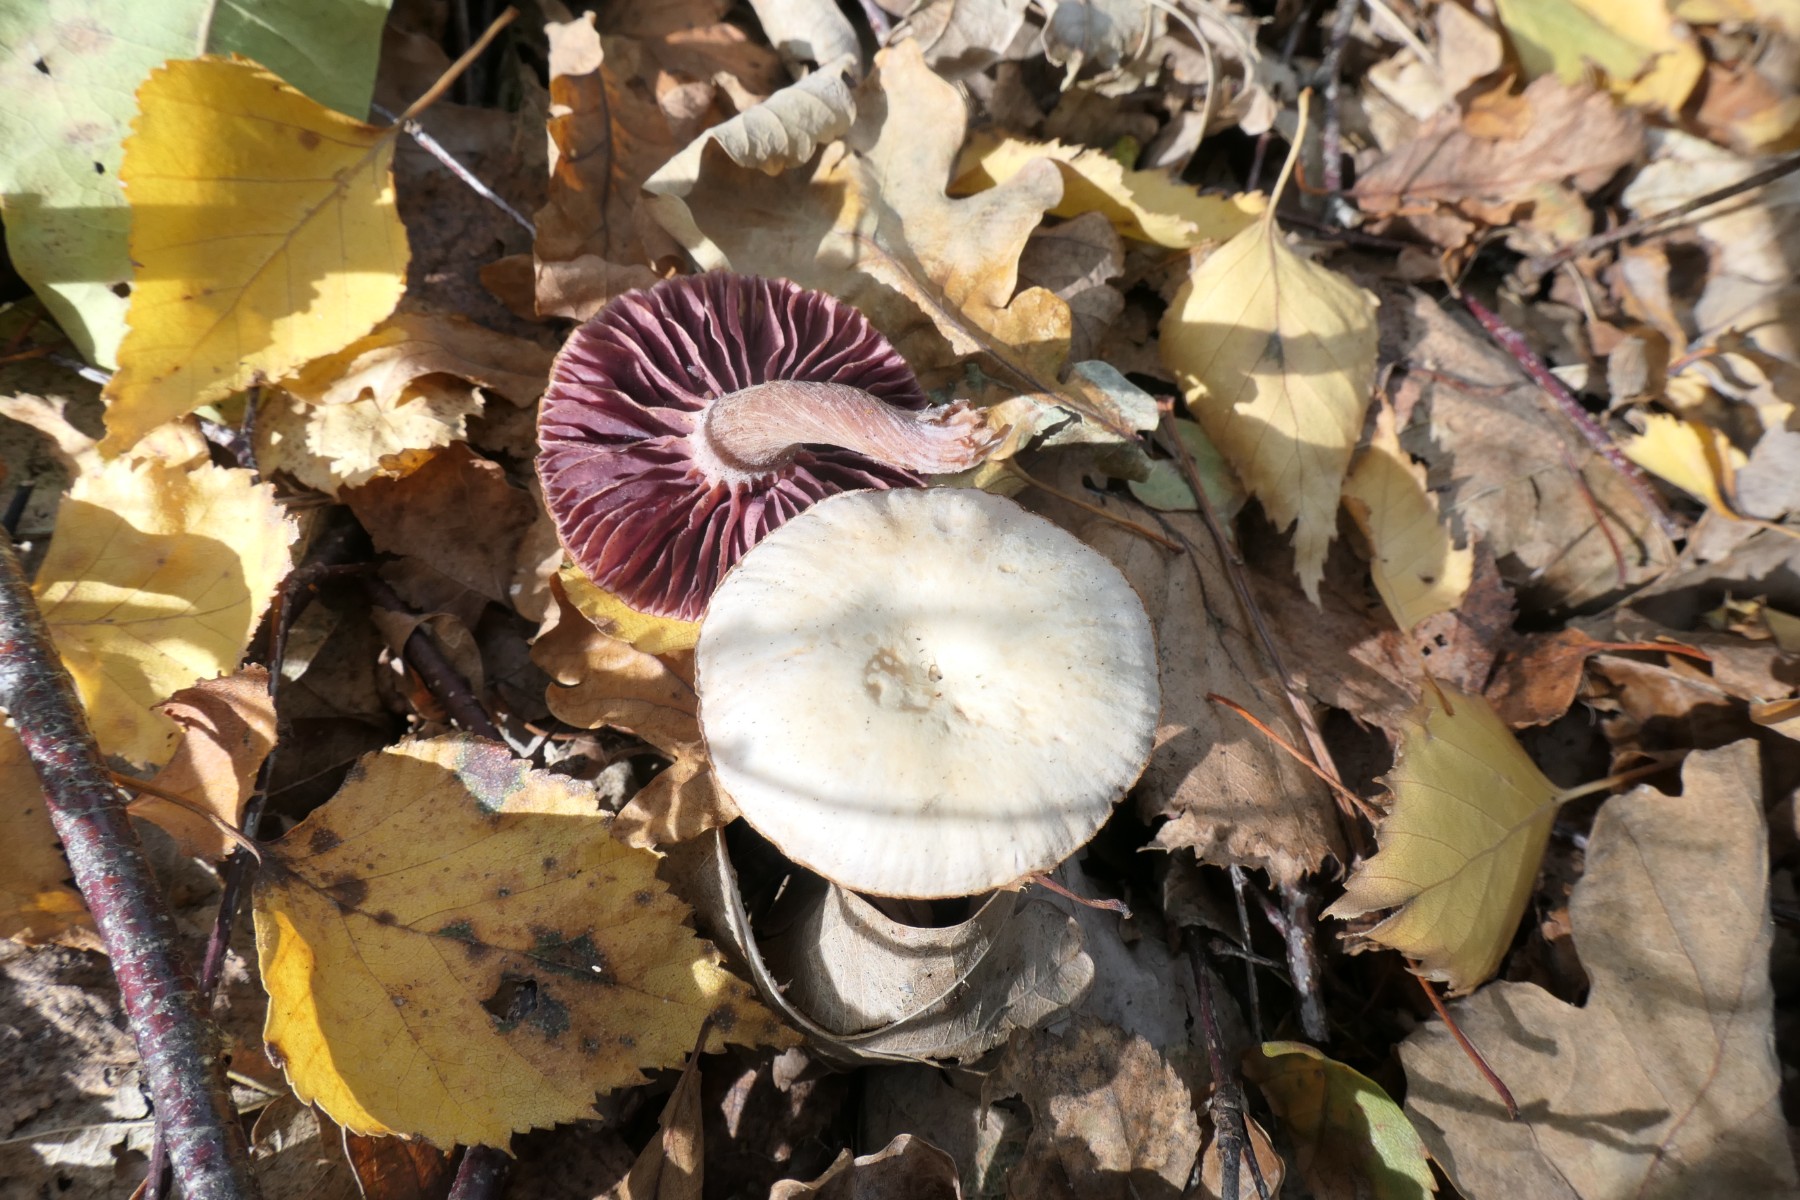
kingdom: Fungi
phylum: Basidiomycota
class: Agaricomycetes
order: Agaricales
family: Hydnangiaceae
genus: Laccaria
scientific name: Laccaria amethystina
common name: violet ametysthat
